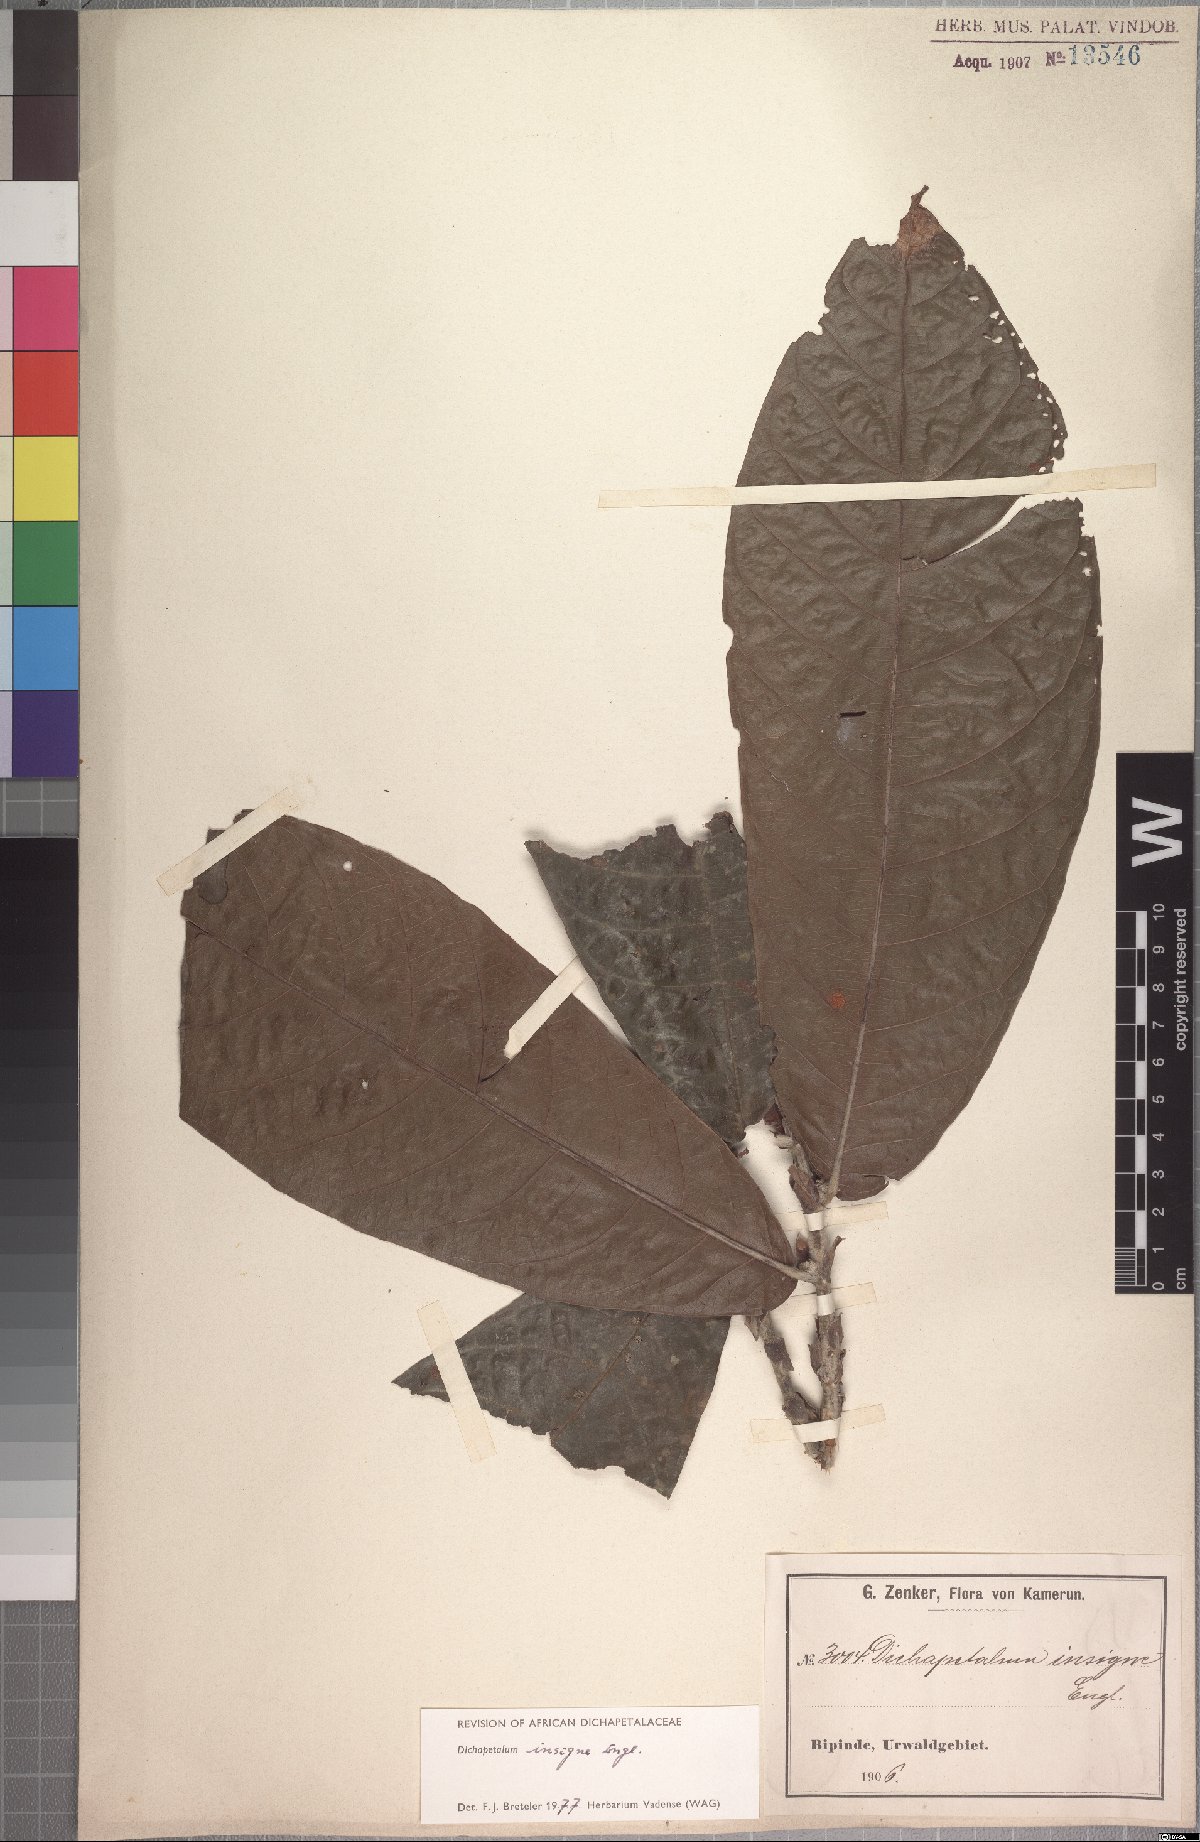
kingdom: Plantae
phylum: Tracheophyta
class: Magnoliopsida
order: Malpighiales
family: Dichapetalaceae
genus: Dichapetalum
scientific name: Dichapetalum insigne
